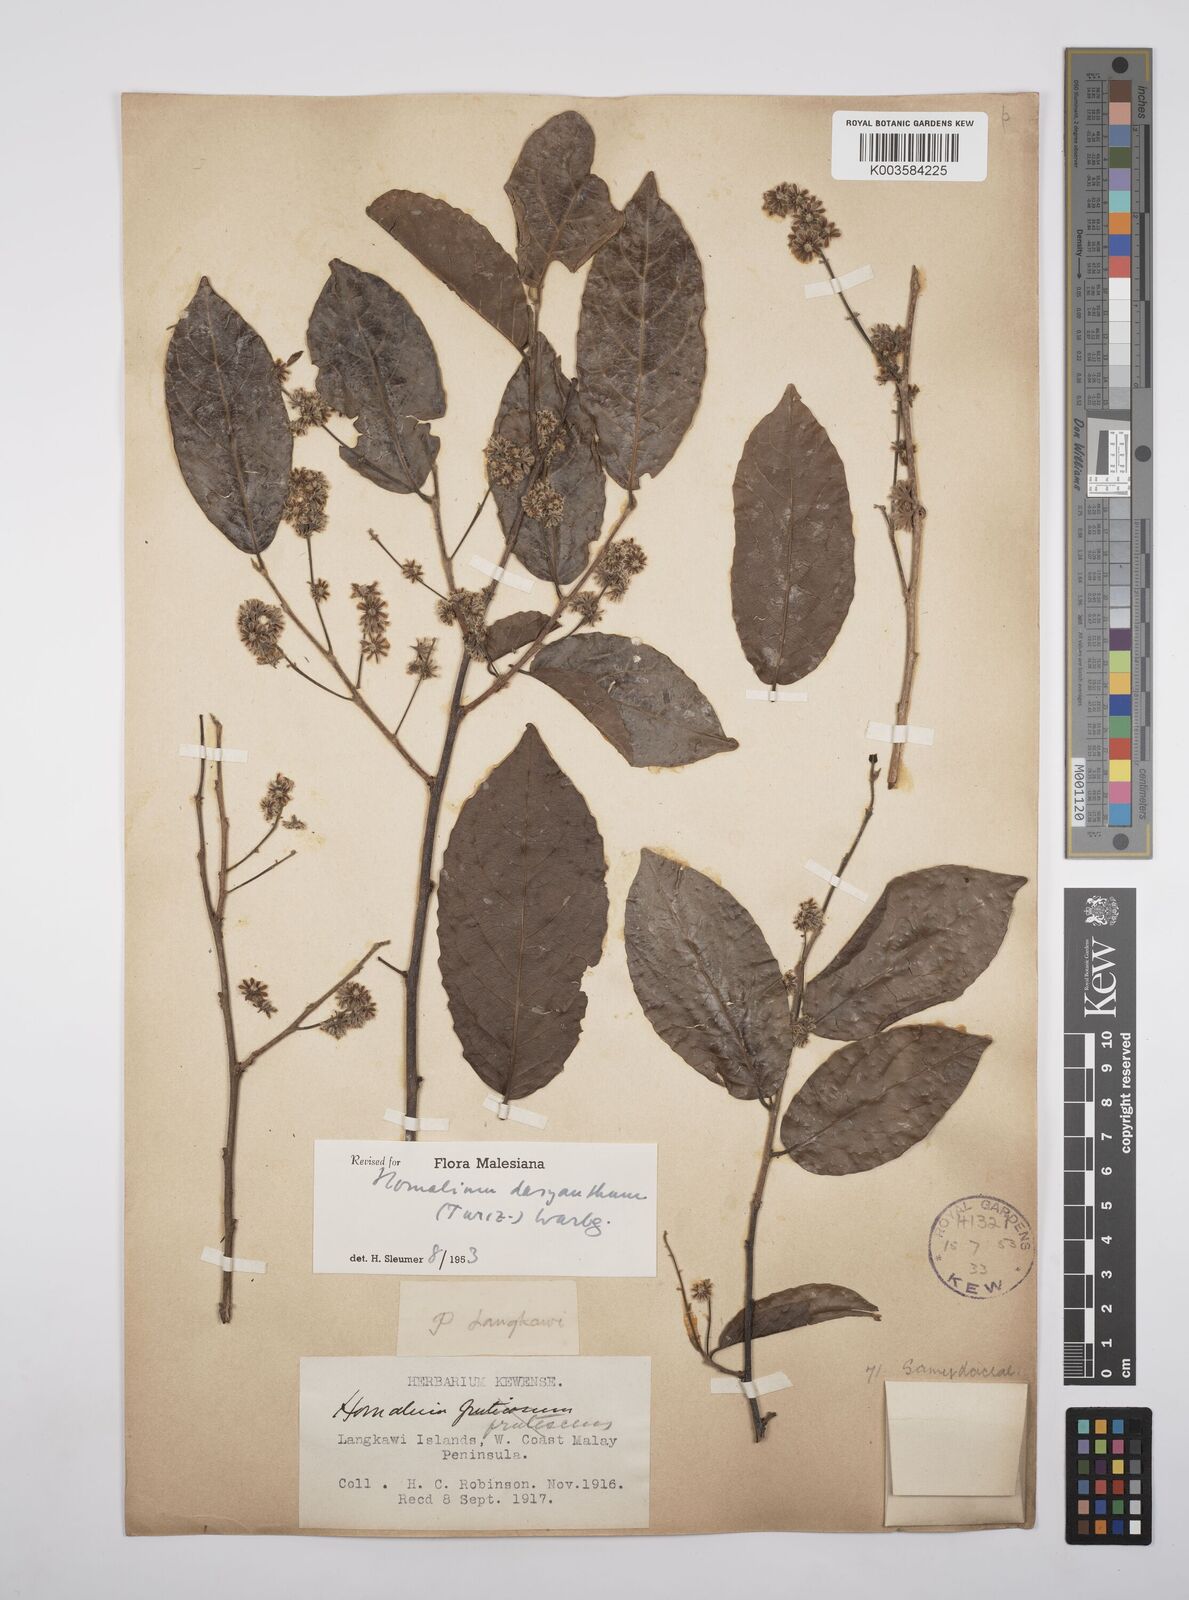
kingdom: Plantae
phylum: Tracheophyta
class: Magnoliopsida
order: Malpighiales
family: Salicaceae
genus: Homalium
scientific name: Homalium dasyanthum
